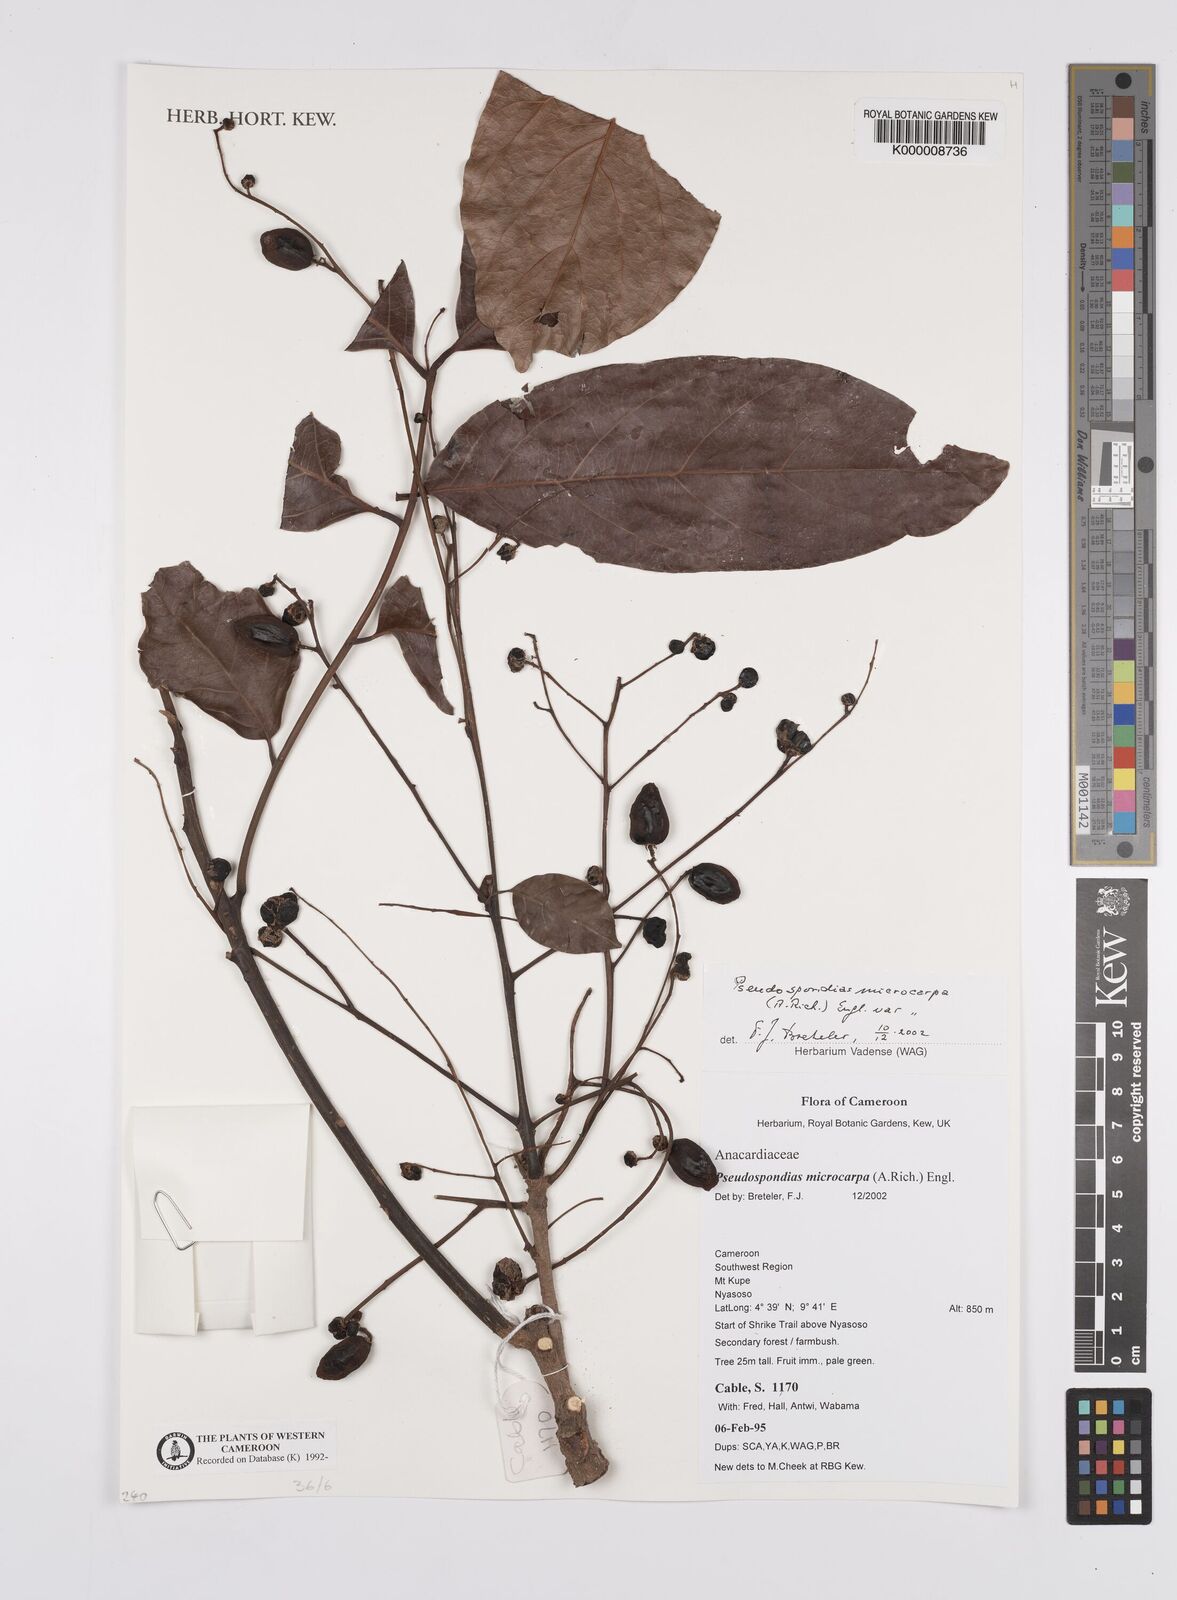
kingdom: Plantae
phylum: Tracheophyta
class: Magnoliopsida
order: Sapindales
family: Anacardiaceae
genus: Pseudospondias
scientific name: Pseudospondias microcarpa
